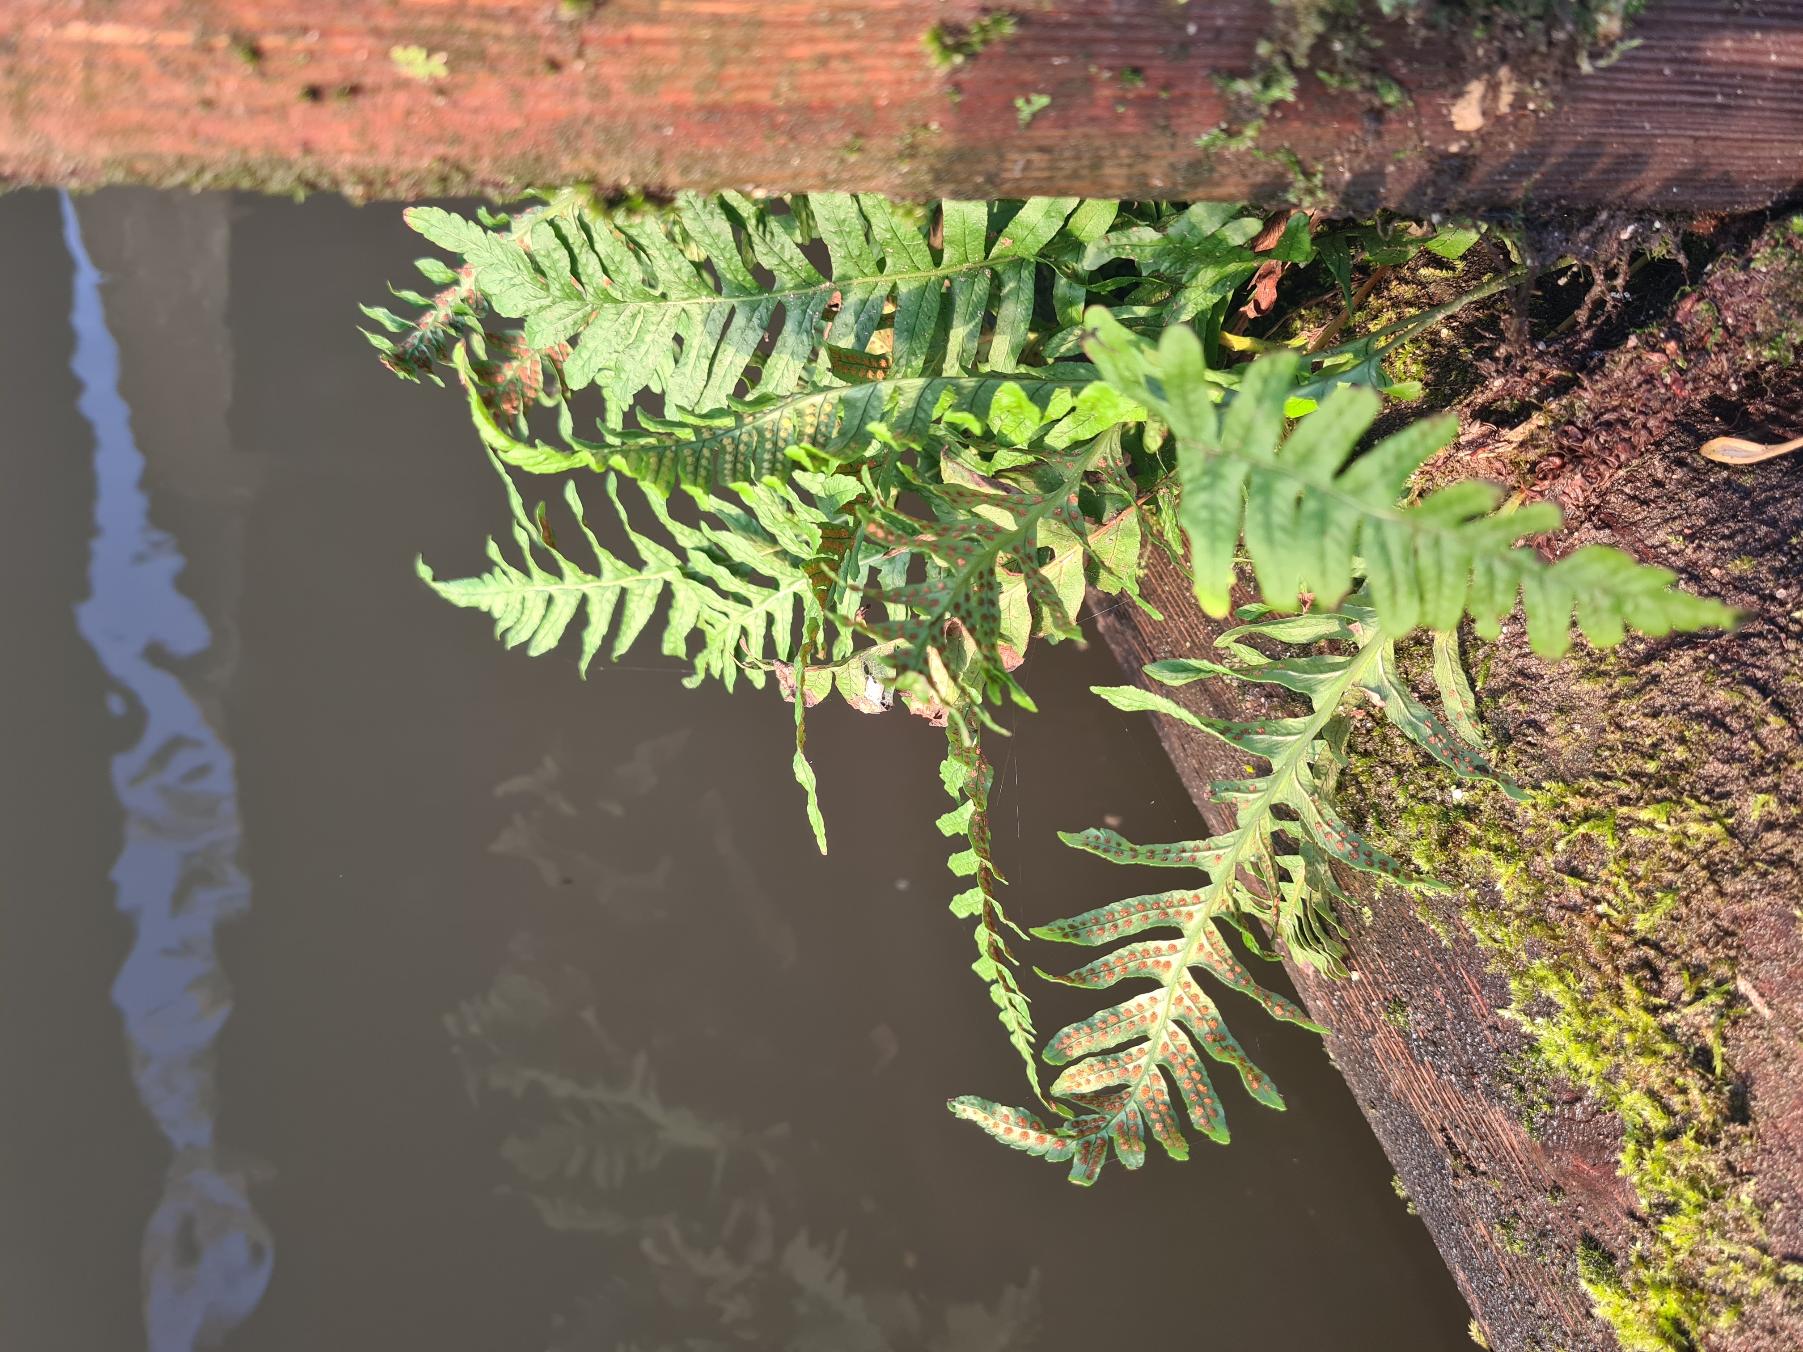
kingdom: Plantae
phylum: Tracheophyta
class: Polypodiopsida
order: Polypodiales
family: Polypodiaceae
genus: Polypodium
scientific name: Polypodium vulgare
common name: Almindelig engelsød
